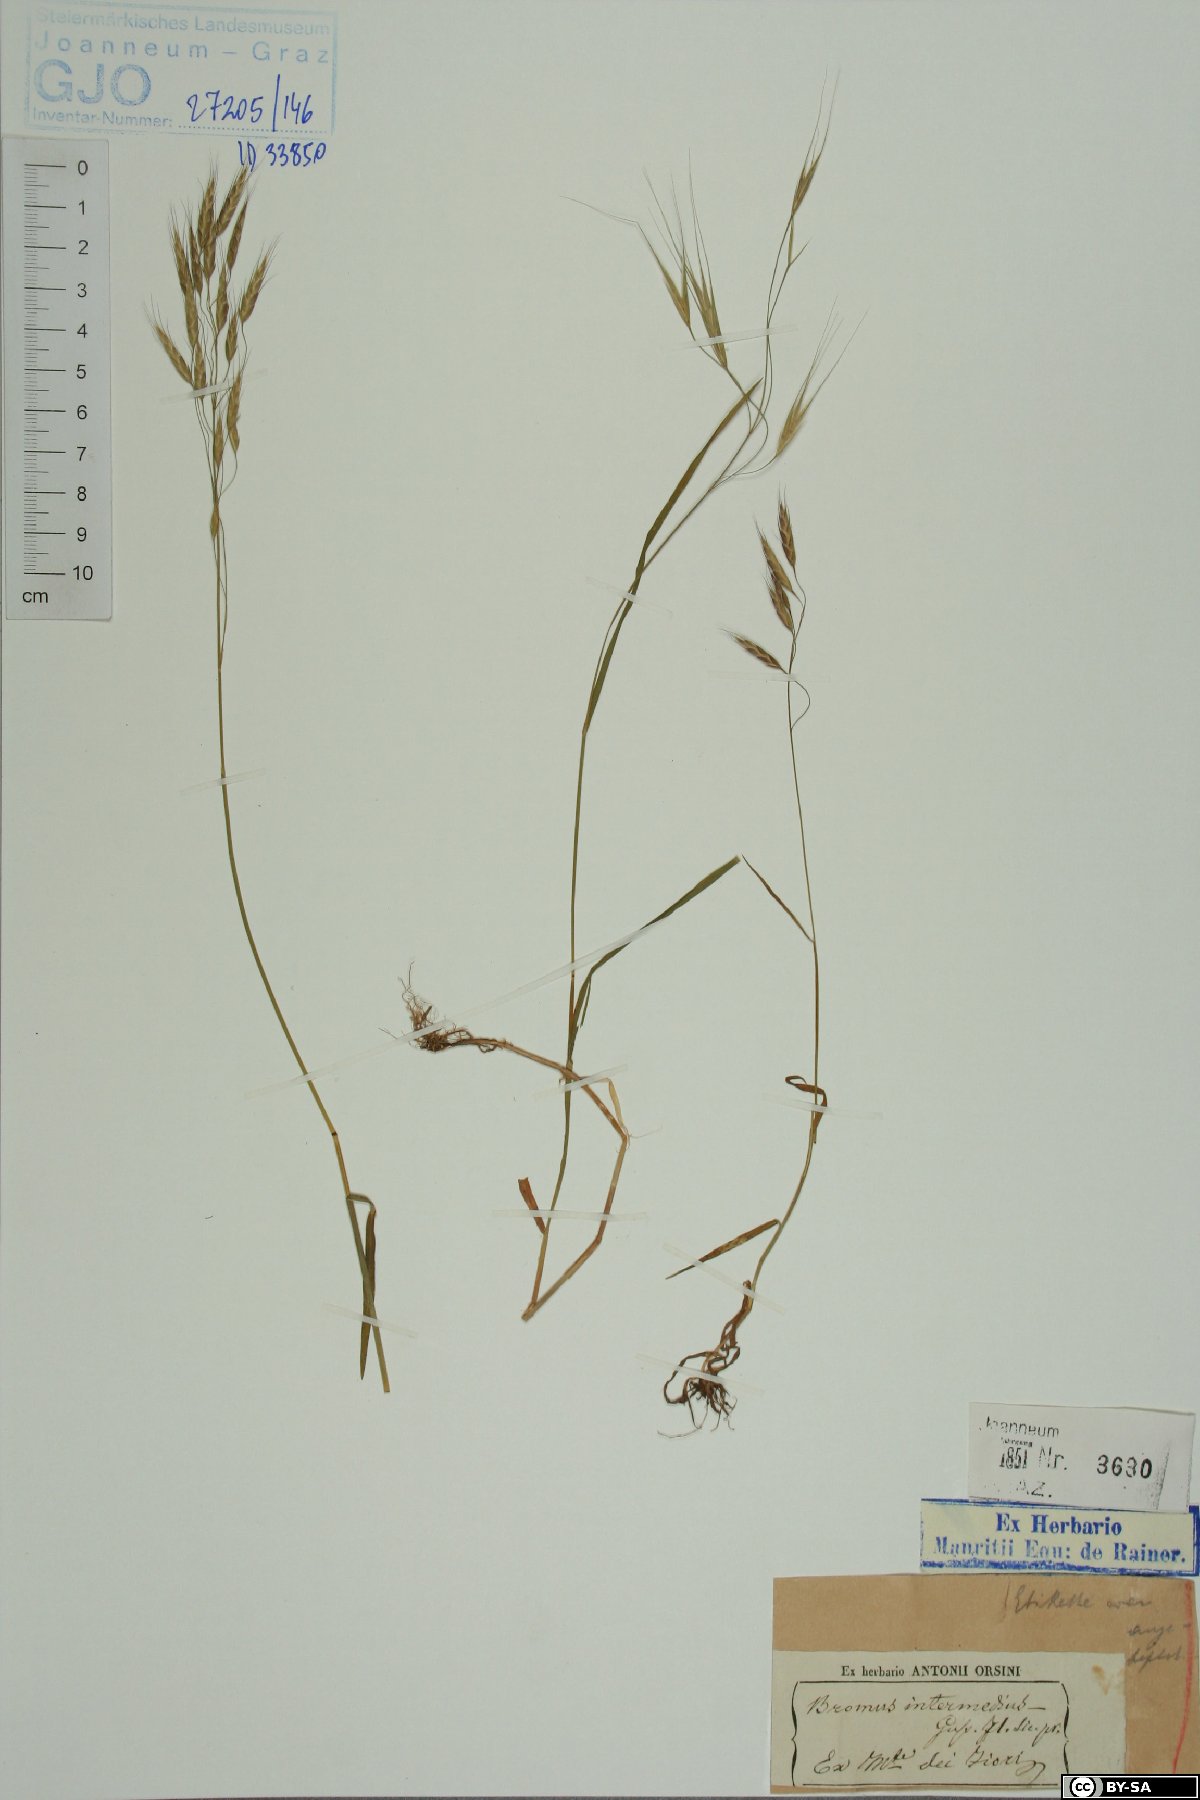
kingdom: Plantae
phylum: Tracheophyta
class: Liliopsida
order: Poales
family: Poaceae
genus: Bromus
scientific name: Bromus intermedius
